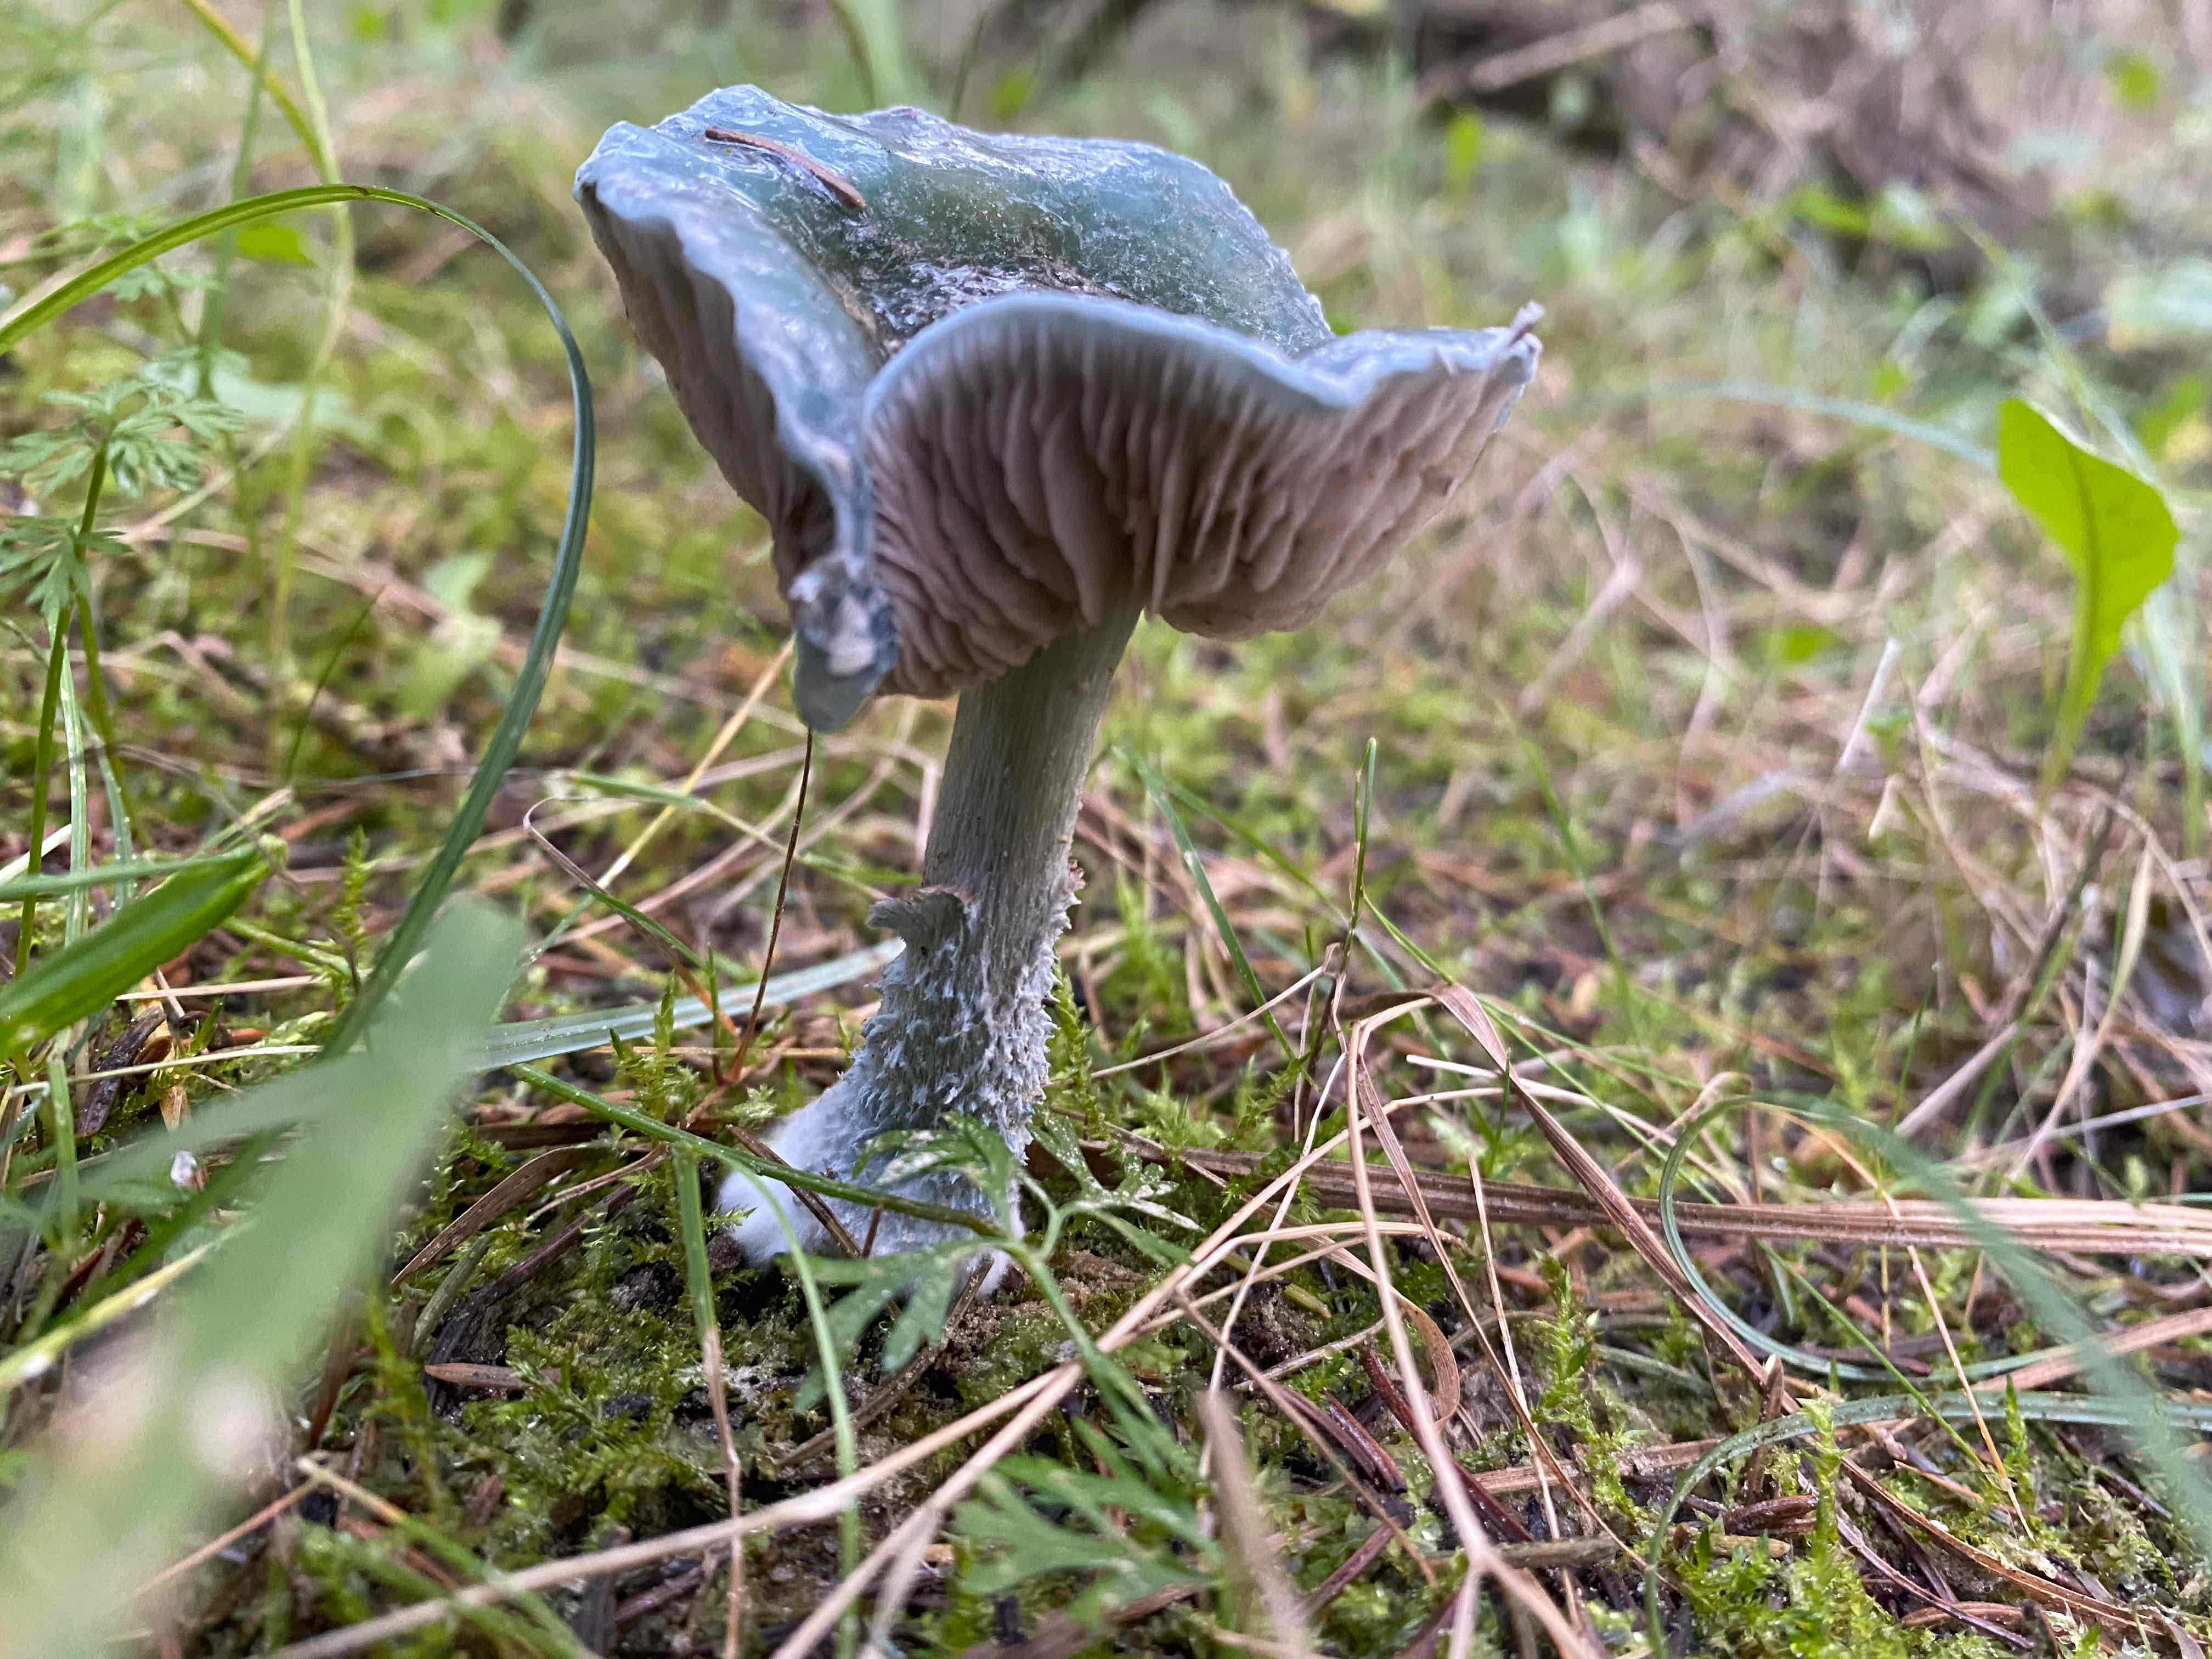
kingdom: Fungi
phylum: Basidiomycota
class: Agaricomycetes
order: Agaricales
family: Strophariaceae
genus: Stropharia
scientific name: Stropharia cyanea
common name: blågrøn bredblad
